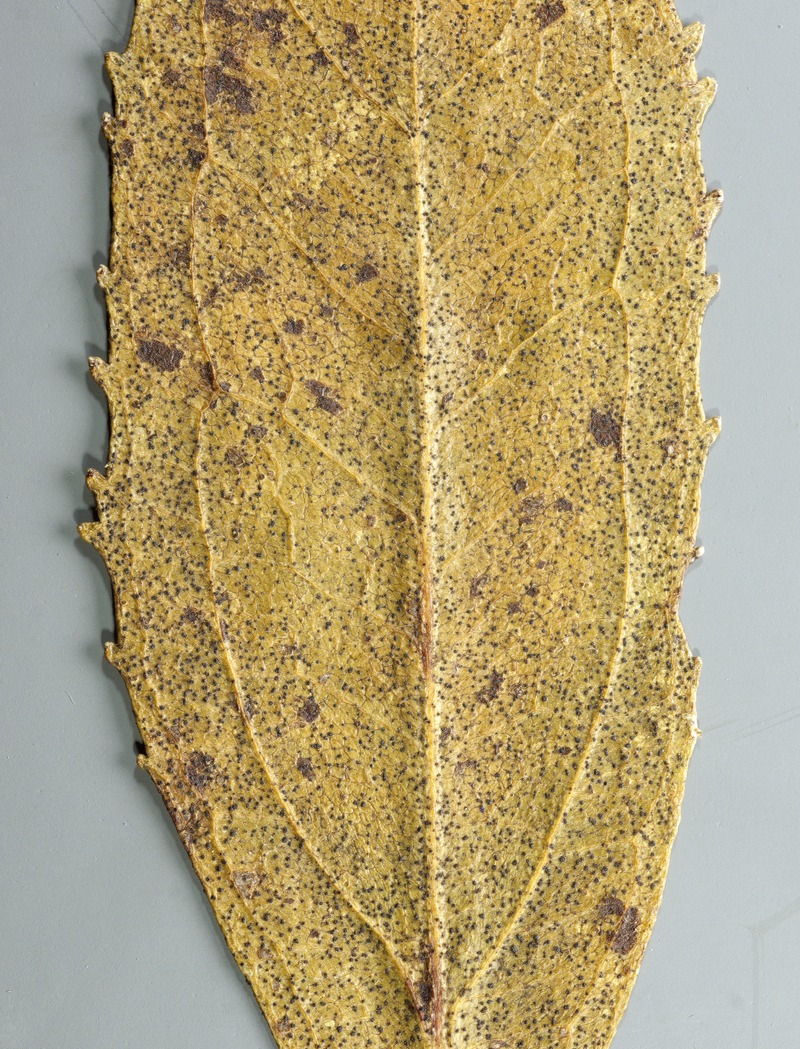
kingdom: Fungi
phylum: Ascomycota
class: Sordariomycetes
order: Hypocreales
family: Clavicipitaceae
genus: Moelleriella
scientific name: Moelleriella atroviridula
